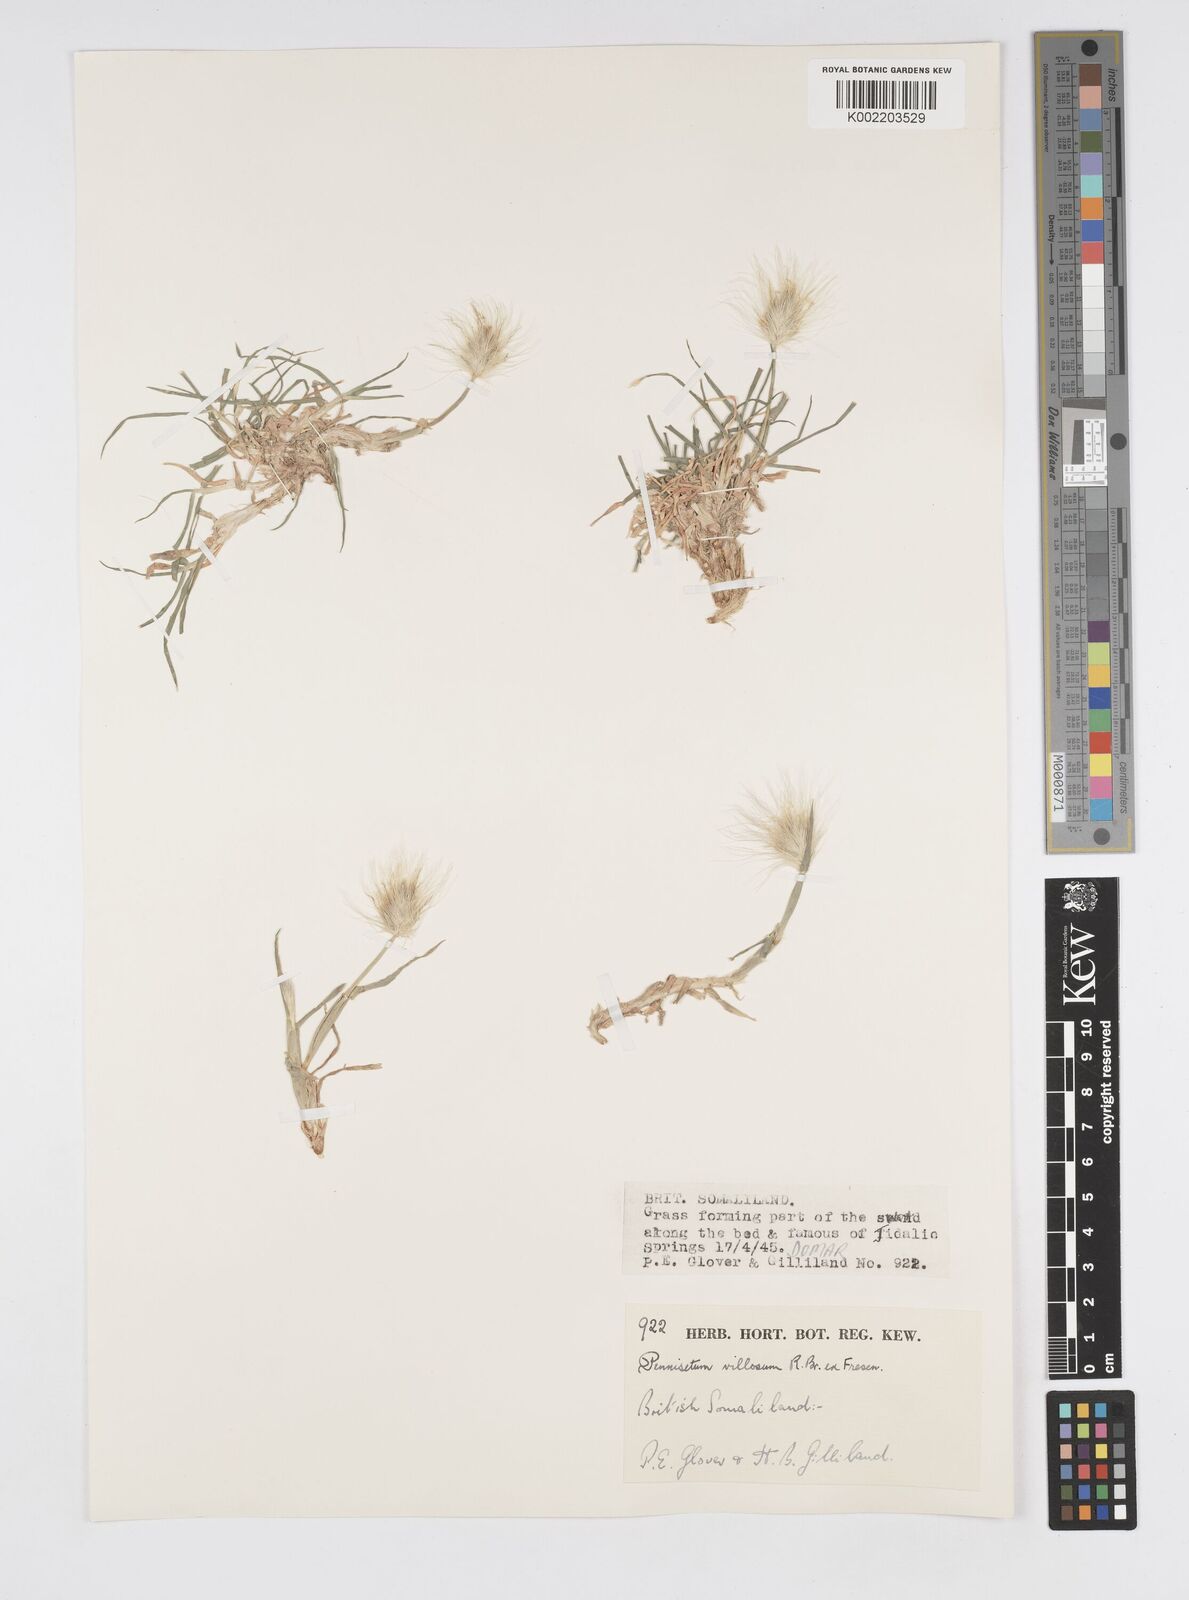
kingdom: Plantae
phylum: Tracheophyta
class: Liliopsida
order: Poales
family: Poaceae
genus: Cenchrus
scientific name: Cenchrus longisetus
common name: Feathertop
